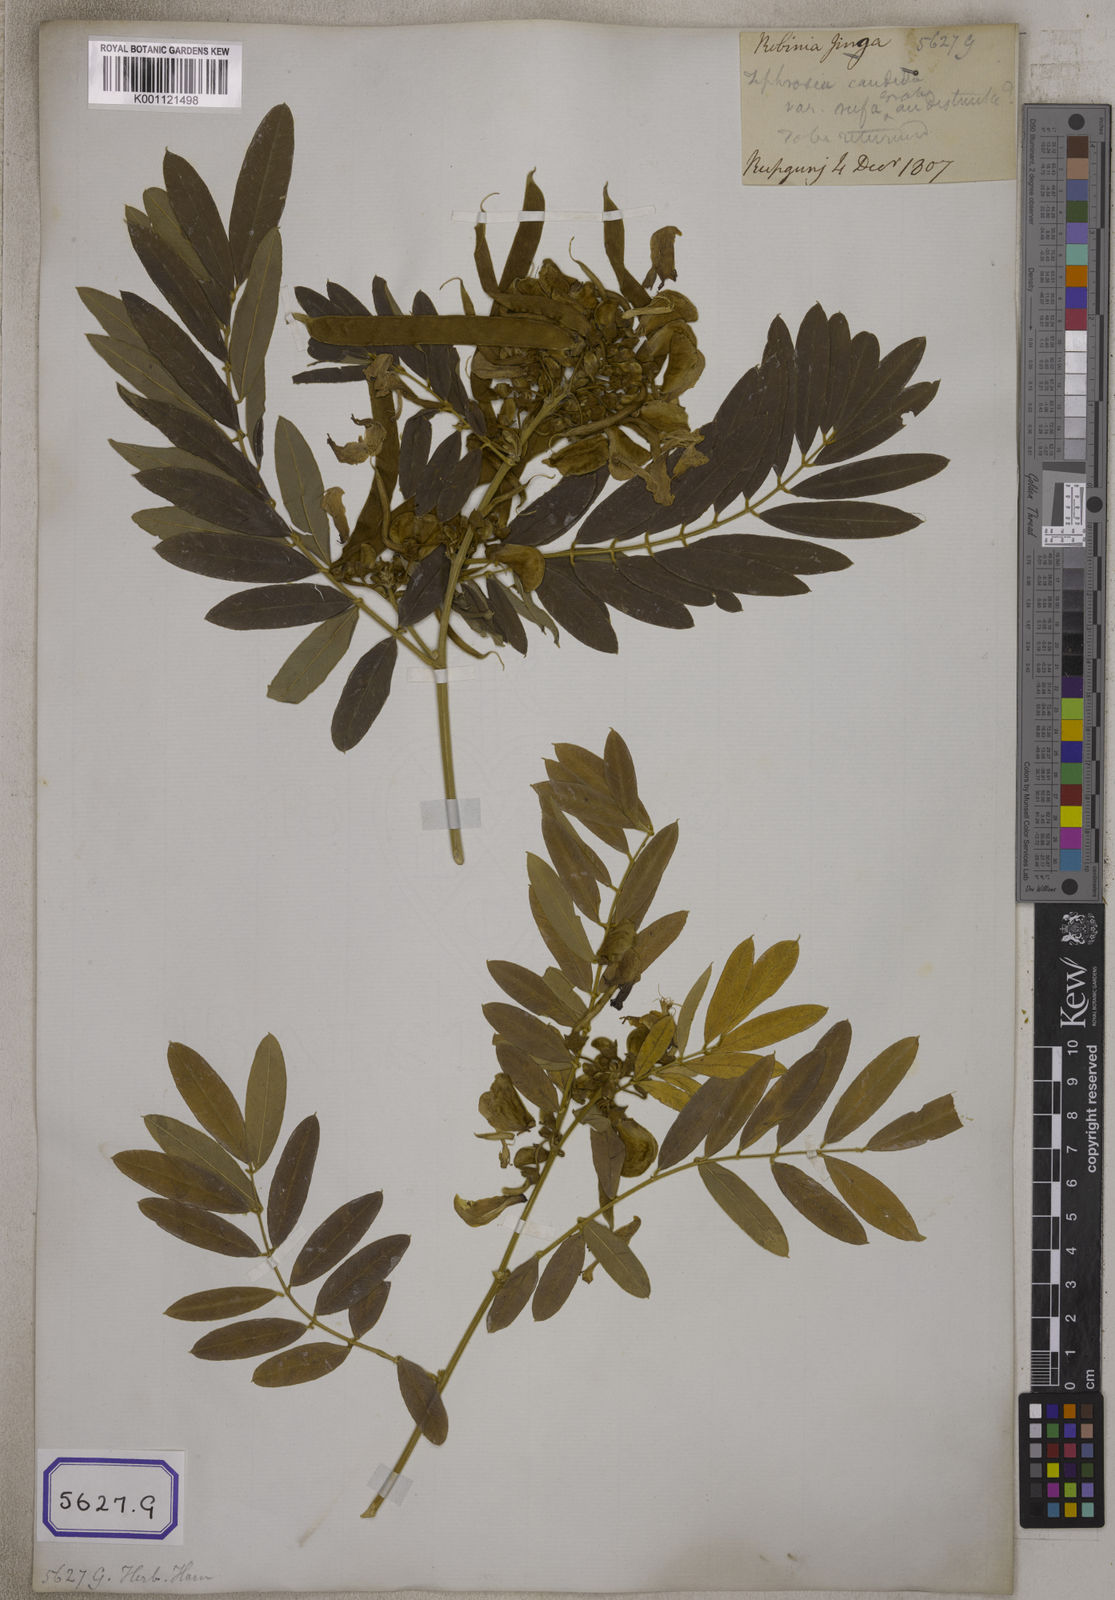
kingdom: Plantae
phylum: Tracheophyta
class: Magnoliopsida
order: Fabales
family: Fabaceae
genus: Tephrosia
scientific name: Tephrosia candida
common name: White tephrosia
